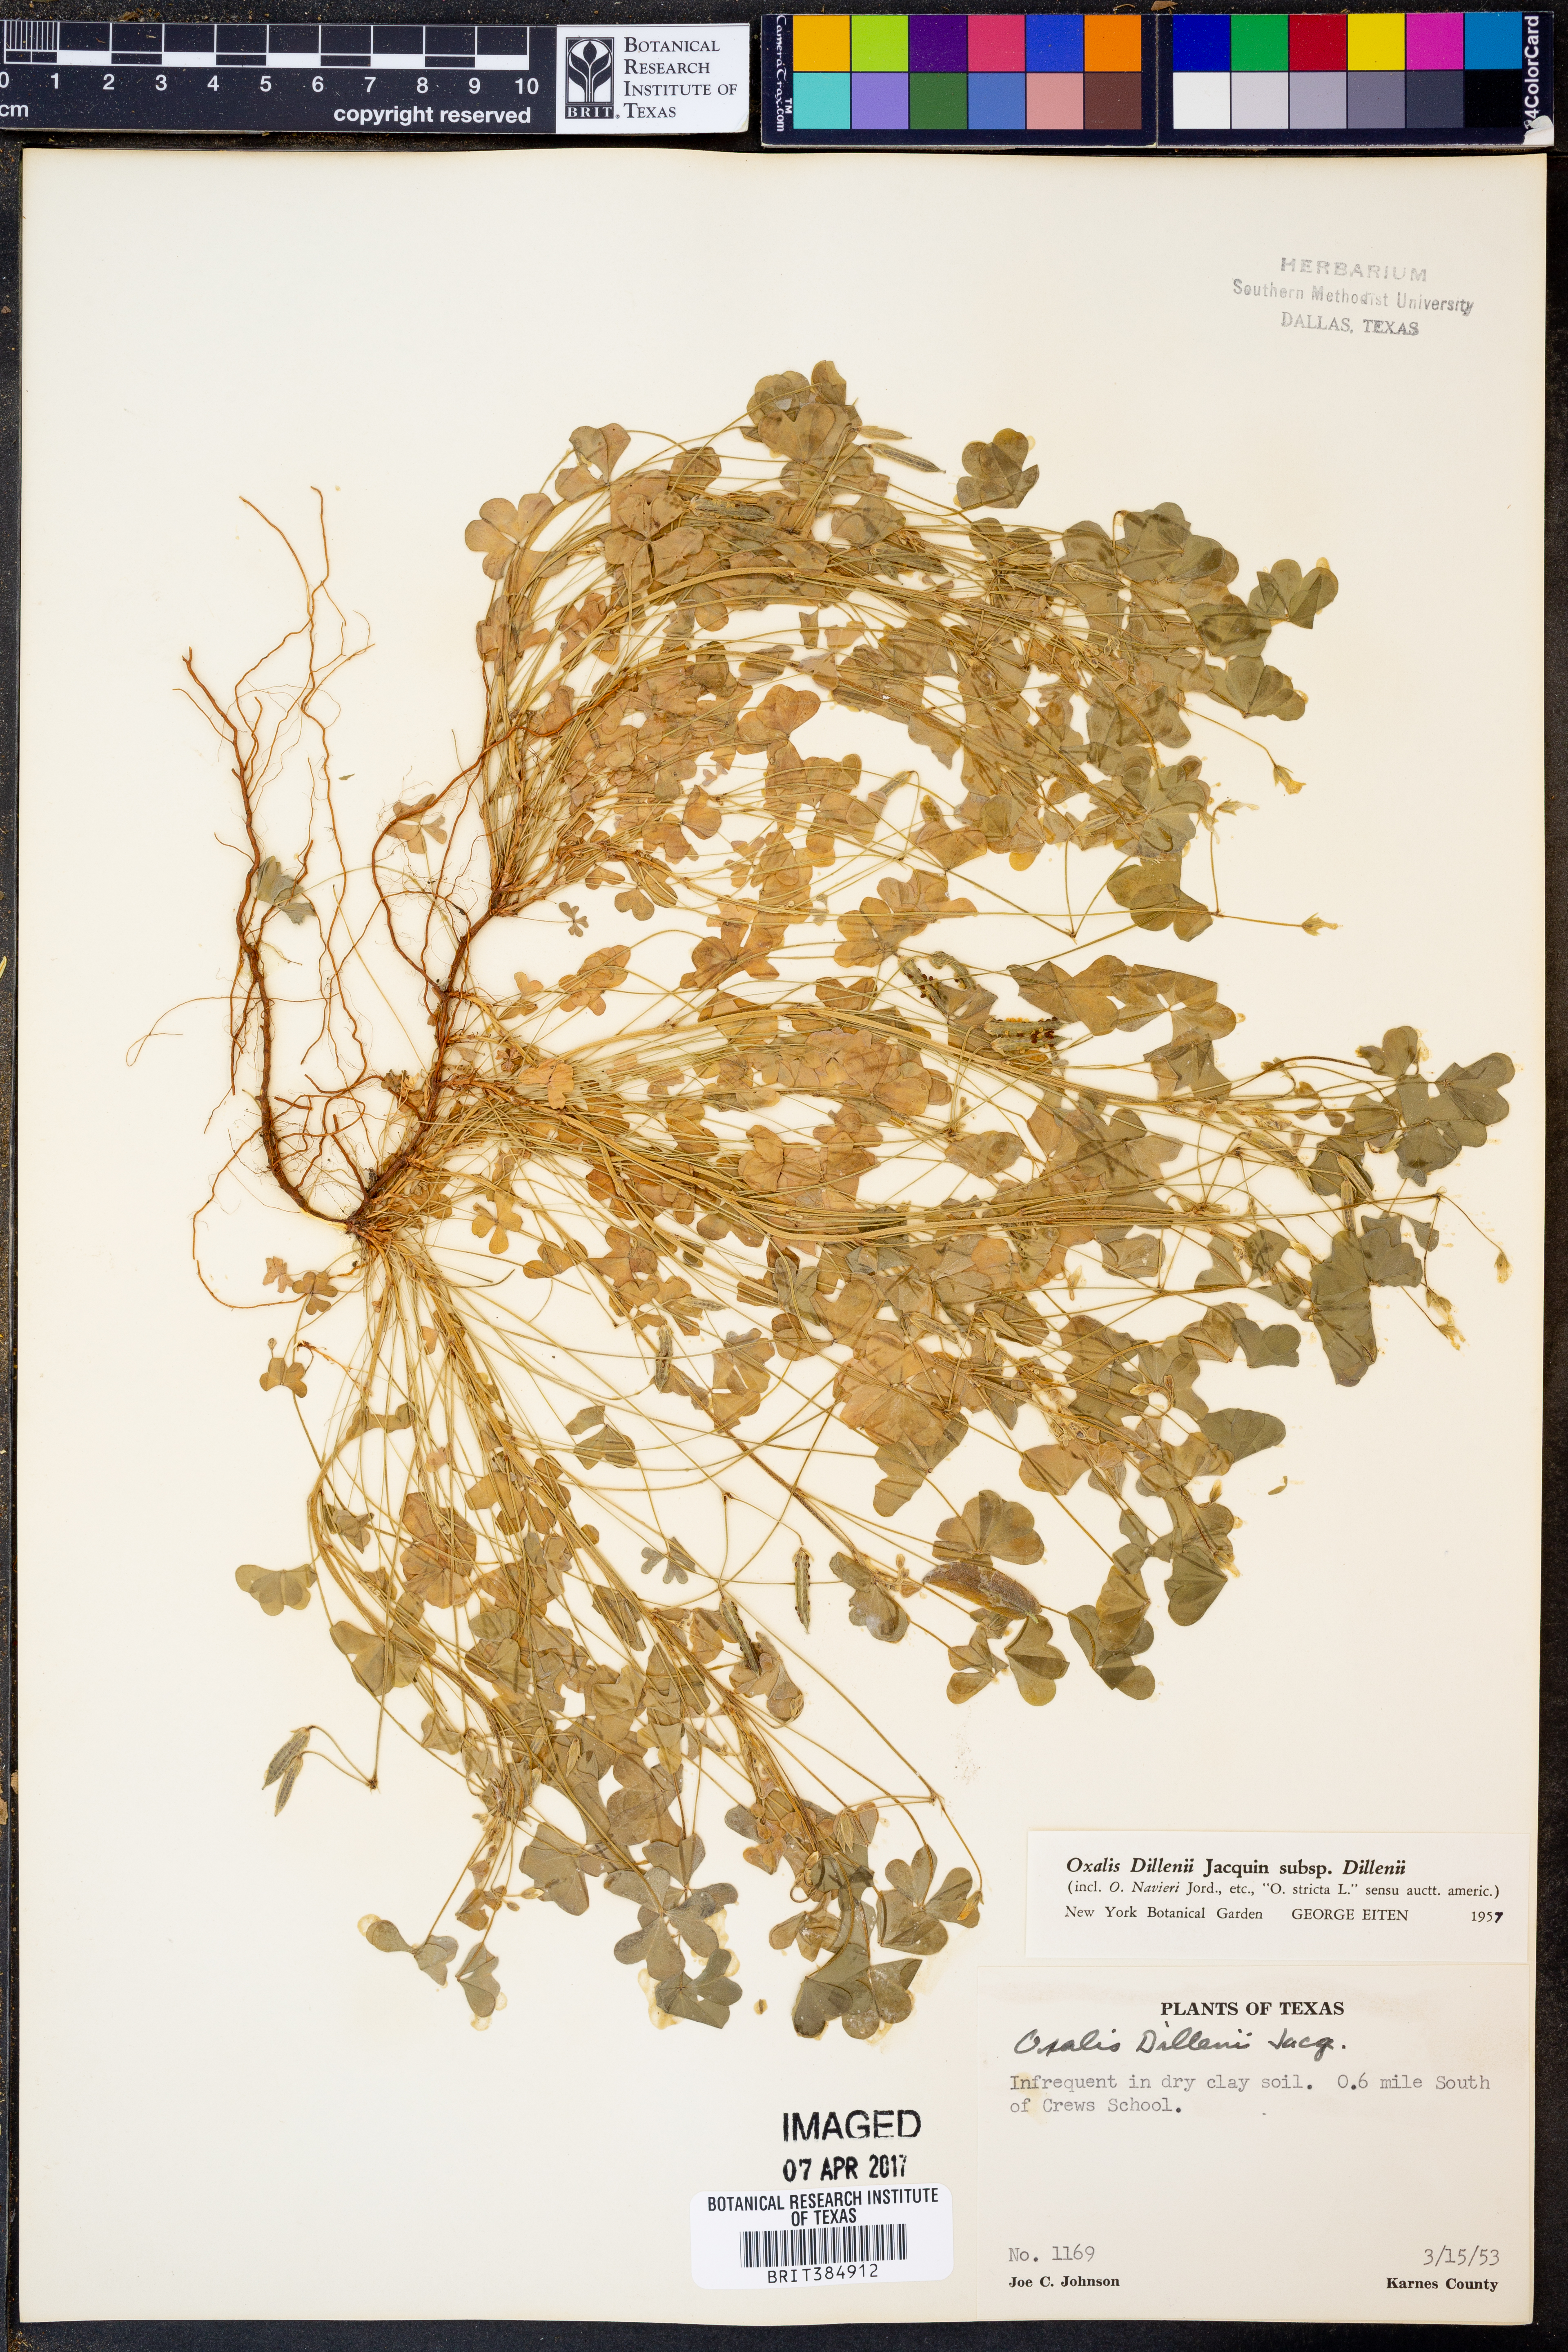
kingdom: Plantae
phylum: Tracheophyta
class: Magnoliopsida
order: Oxalidales
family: Oxalidaceae
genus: Oxalis
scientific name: Oxalis dillenii
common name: Sussex yellow-sorrel
